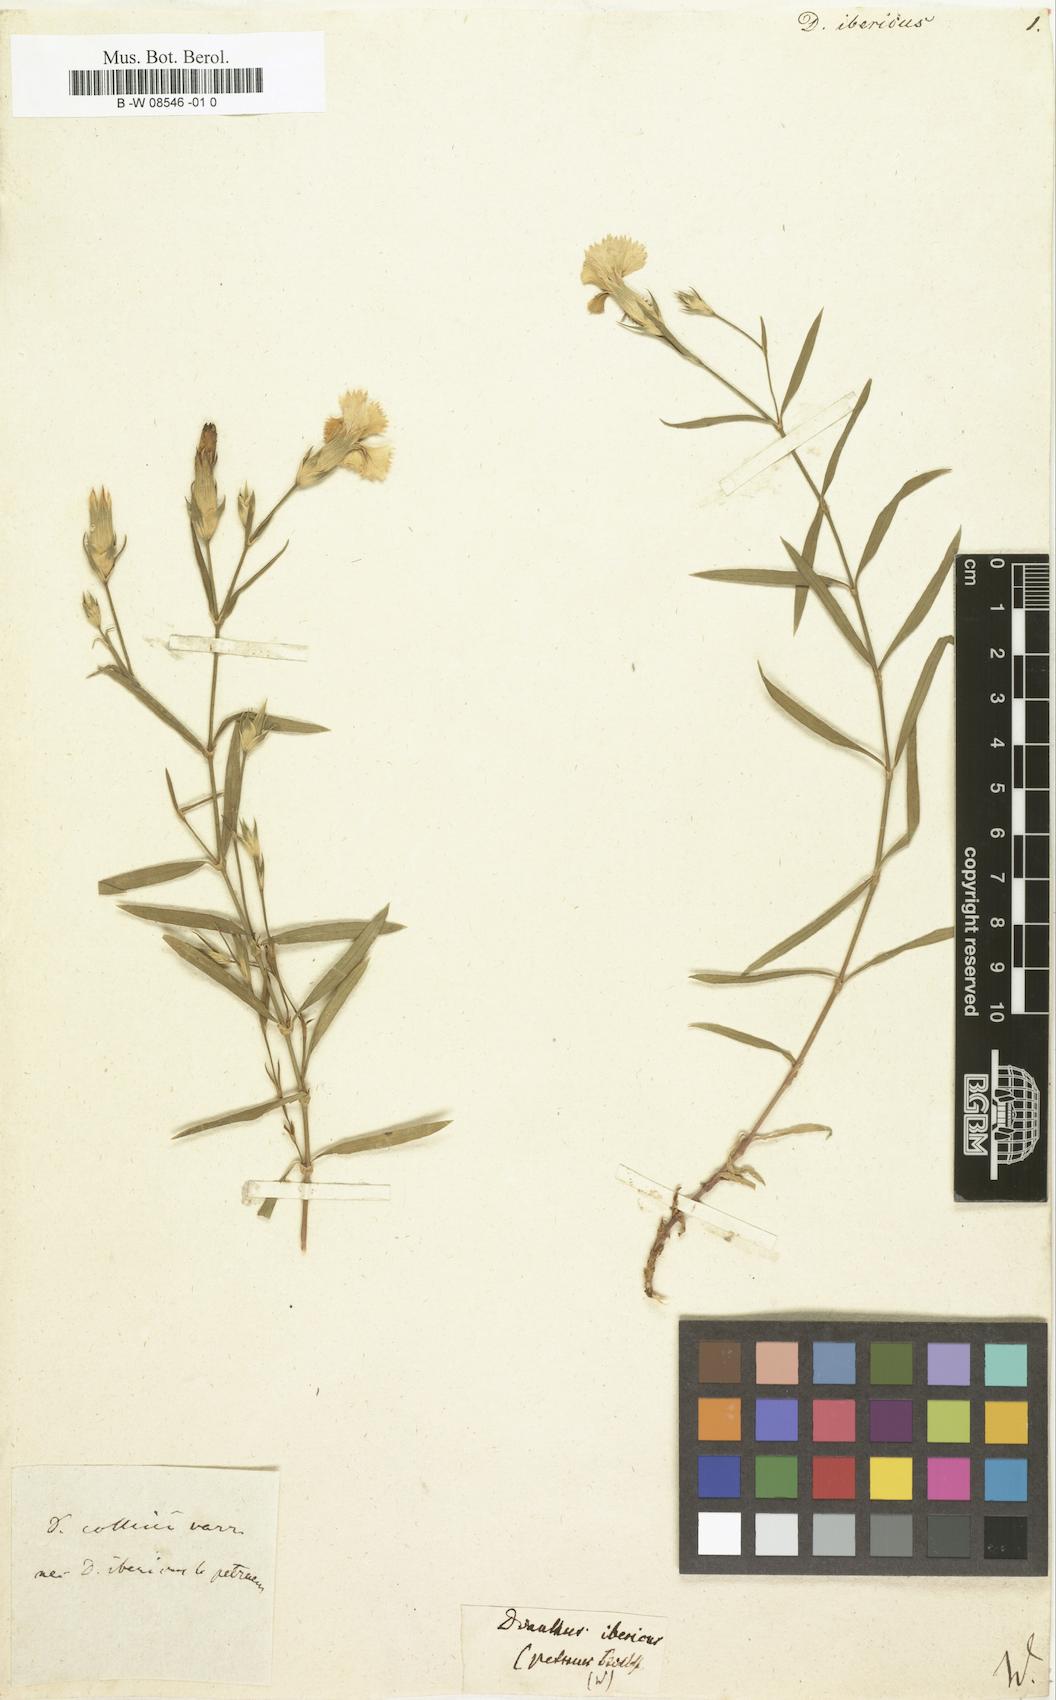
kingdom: Plantae
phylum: Tracheophyta
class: Magnoliopsida
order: Caryophyllales
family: Caryophyllaceae
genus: Dianthus
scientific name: Dianthus
